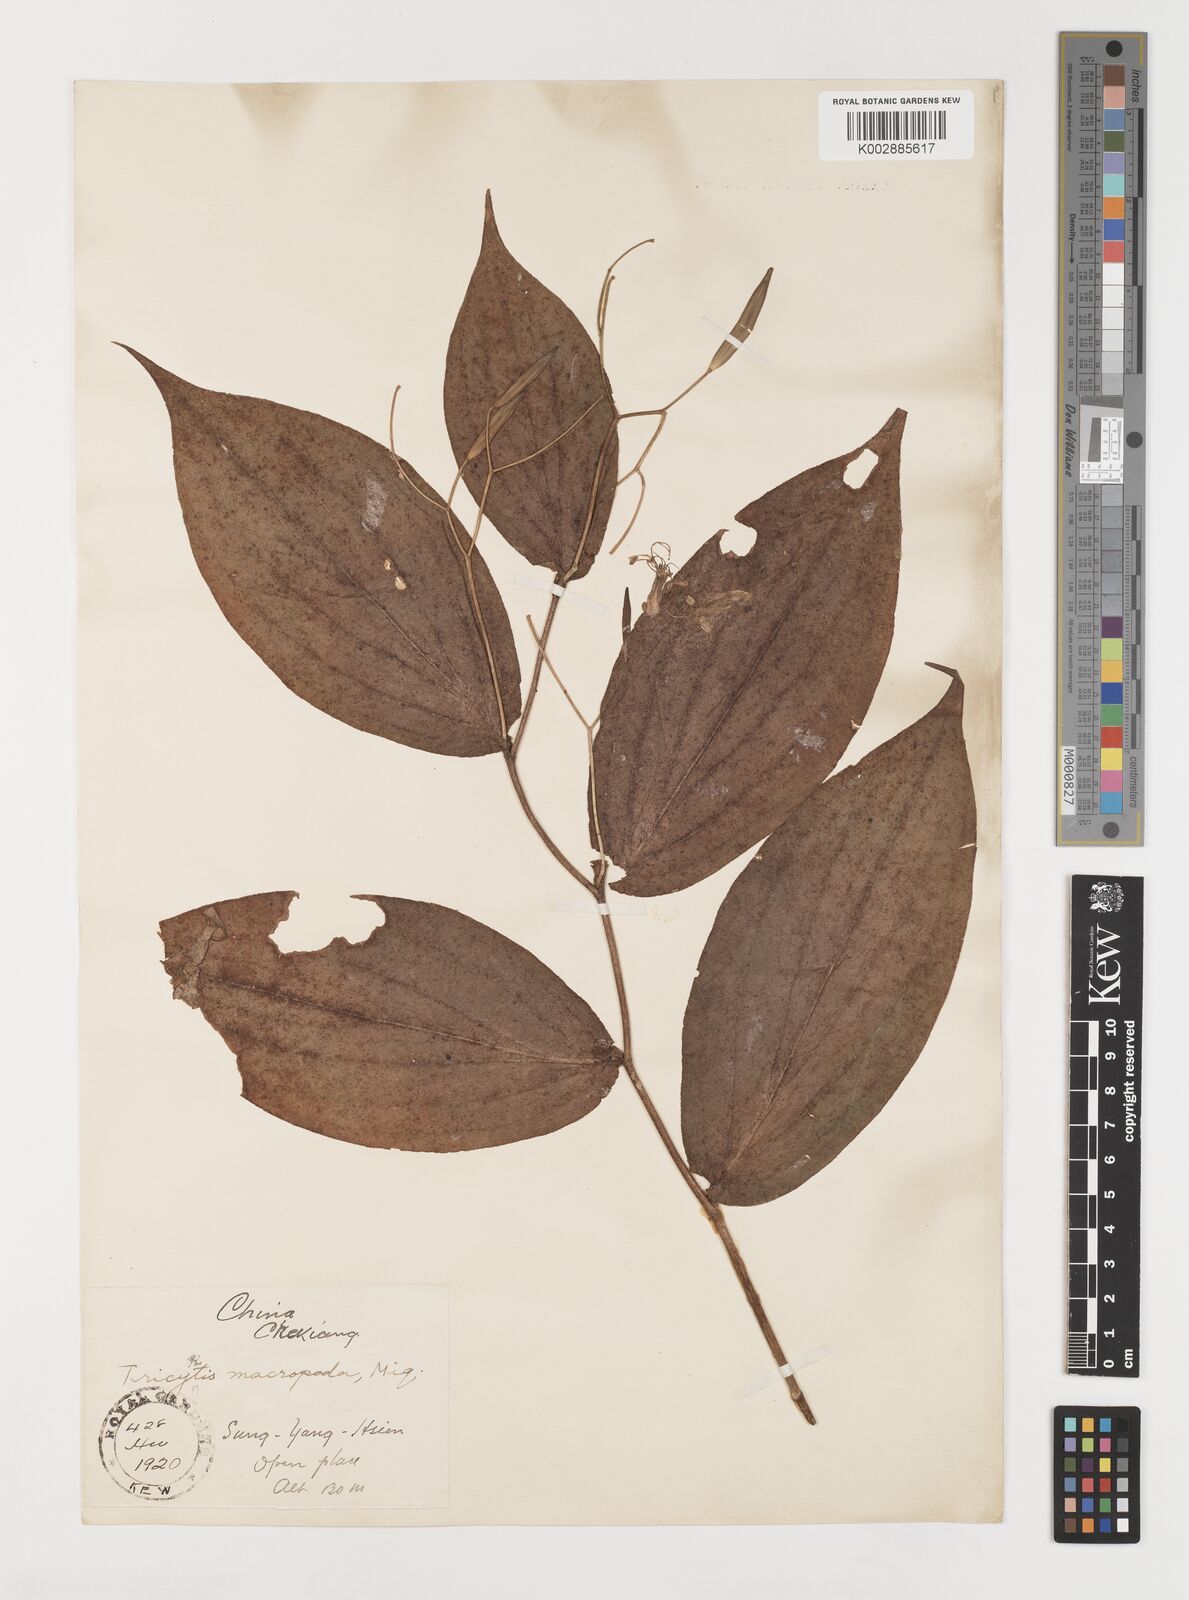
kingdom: Plantae
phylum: Tracheophyta
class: Liliopsida
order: Liliales
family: Liliaceae
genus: Tricyrtis
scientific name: Tricyrtis latifolia
